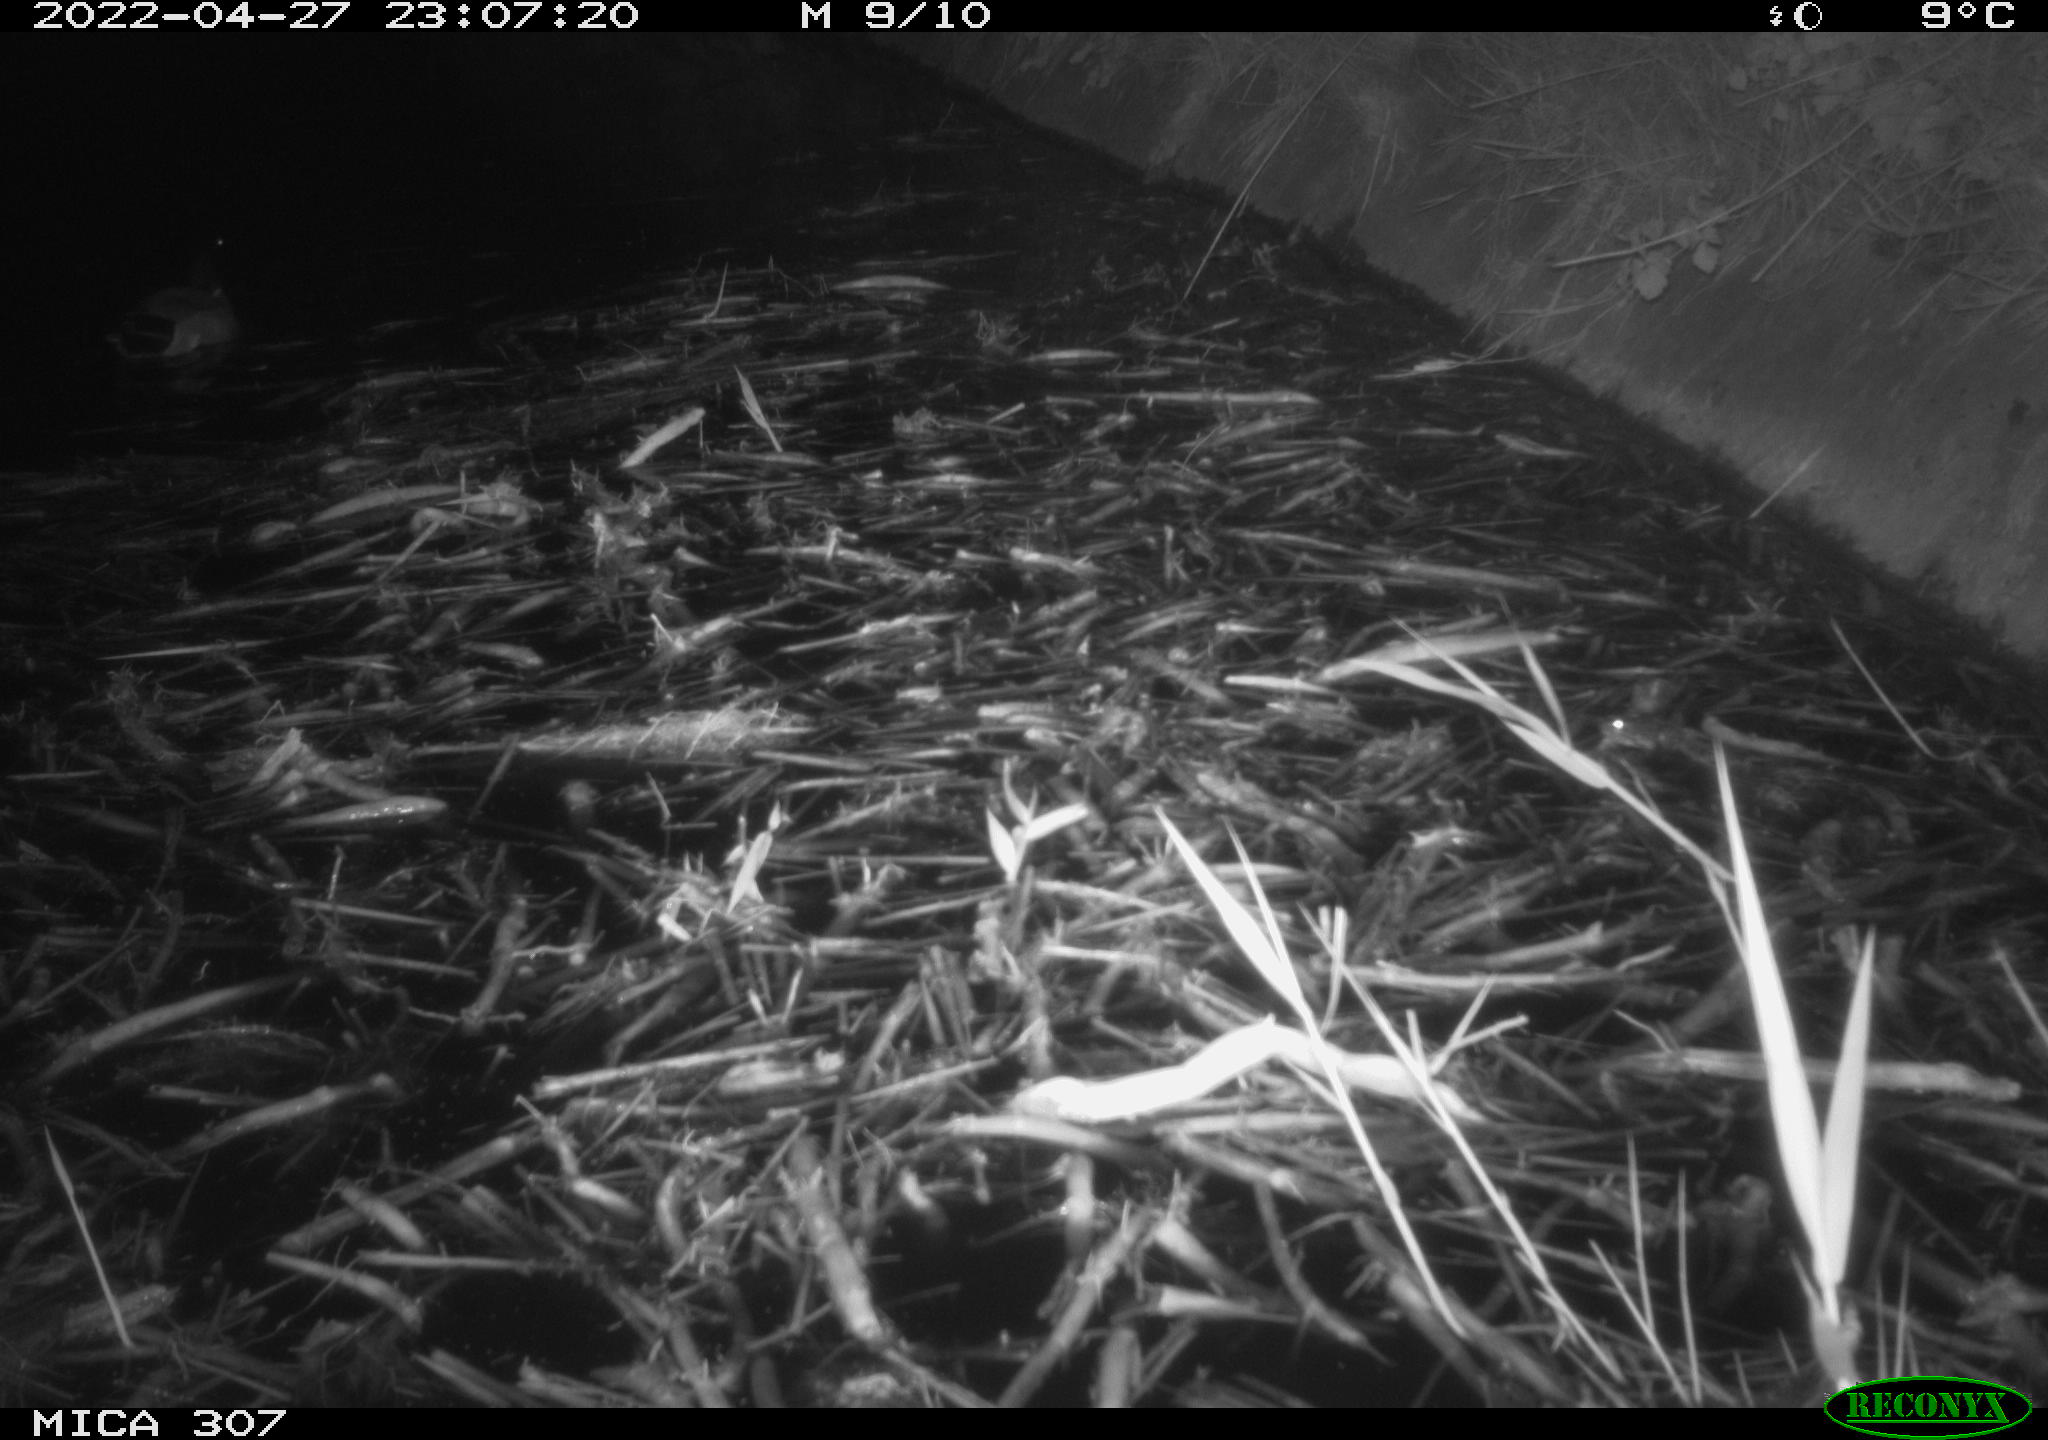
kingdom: Animalia
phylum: Chordata
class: Aves
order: Anseriformes
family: Anatidae
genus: Anas
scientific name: Anas platyrhynchos
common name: Mallard
